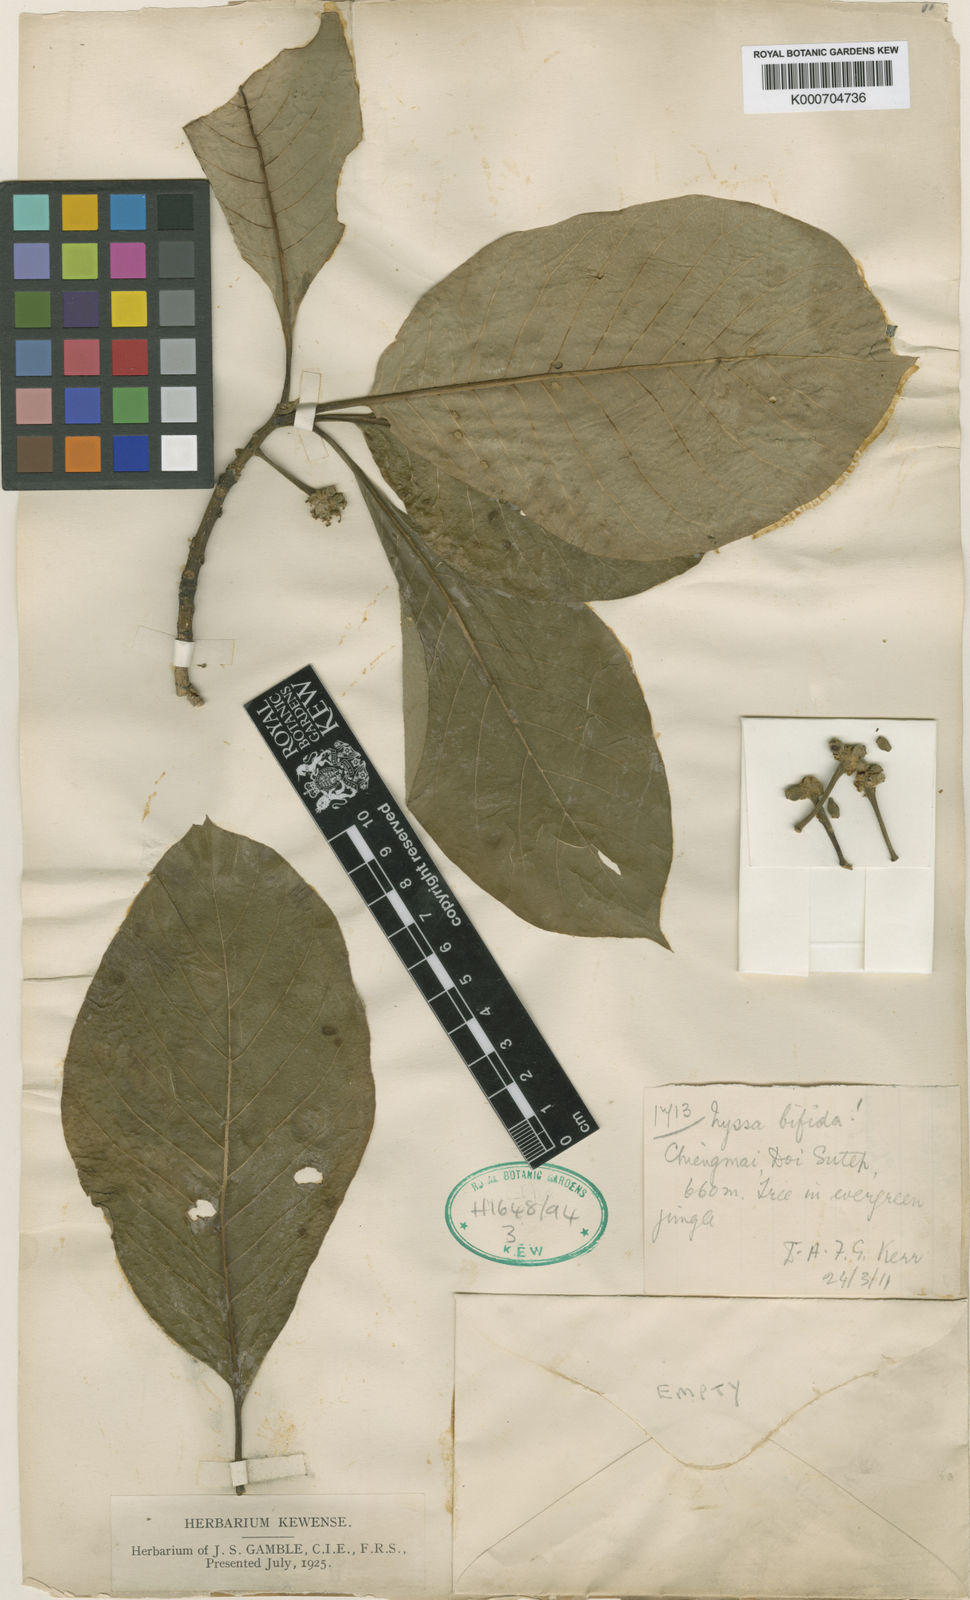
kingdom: Plantae
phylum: Tracheophyta
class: Magnoliopsida
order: Cornales
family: Nyssaceae
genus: Nyssa
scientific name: Nyssa
